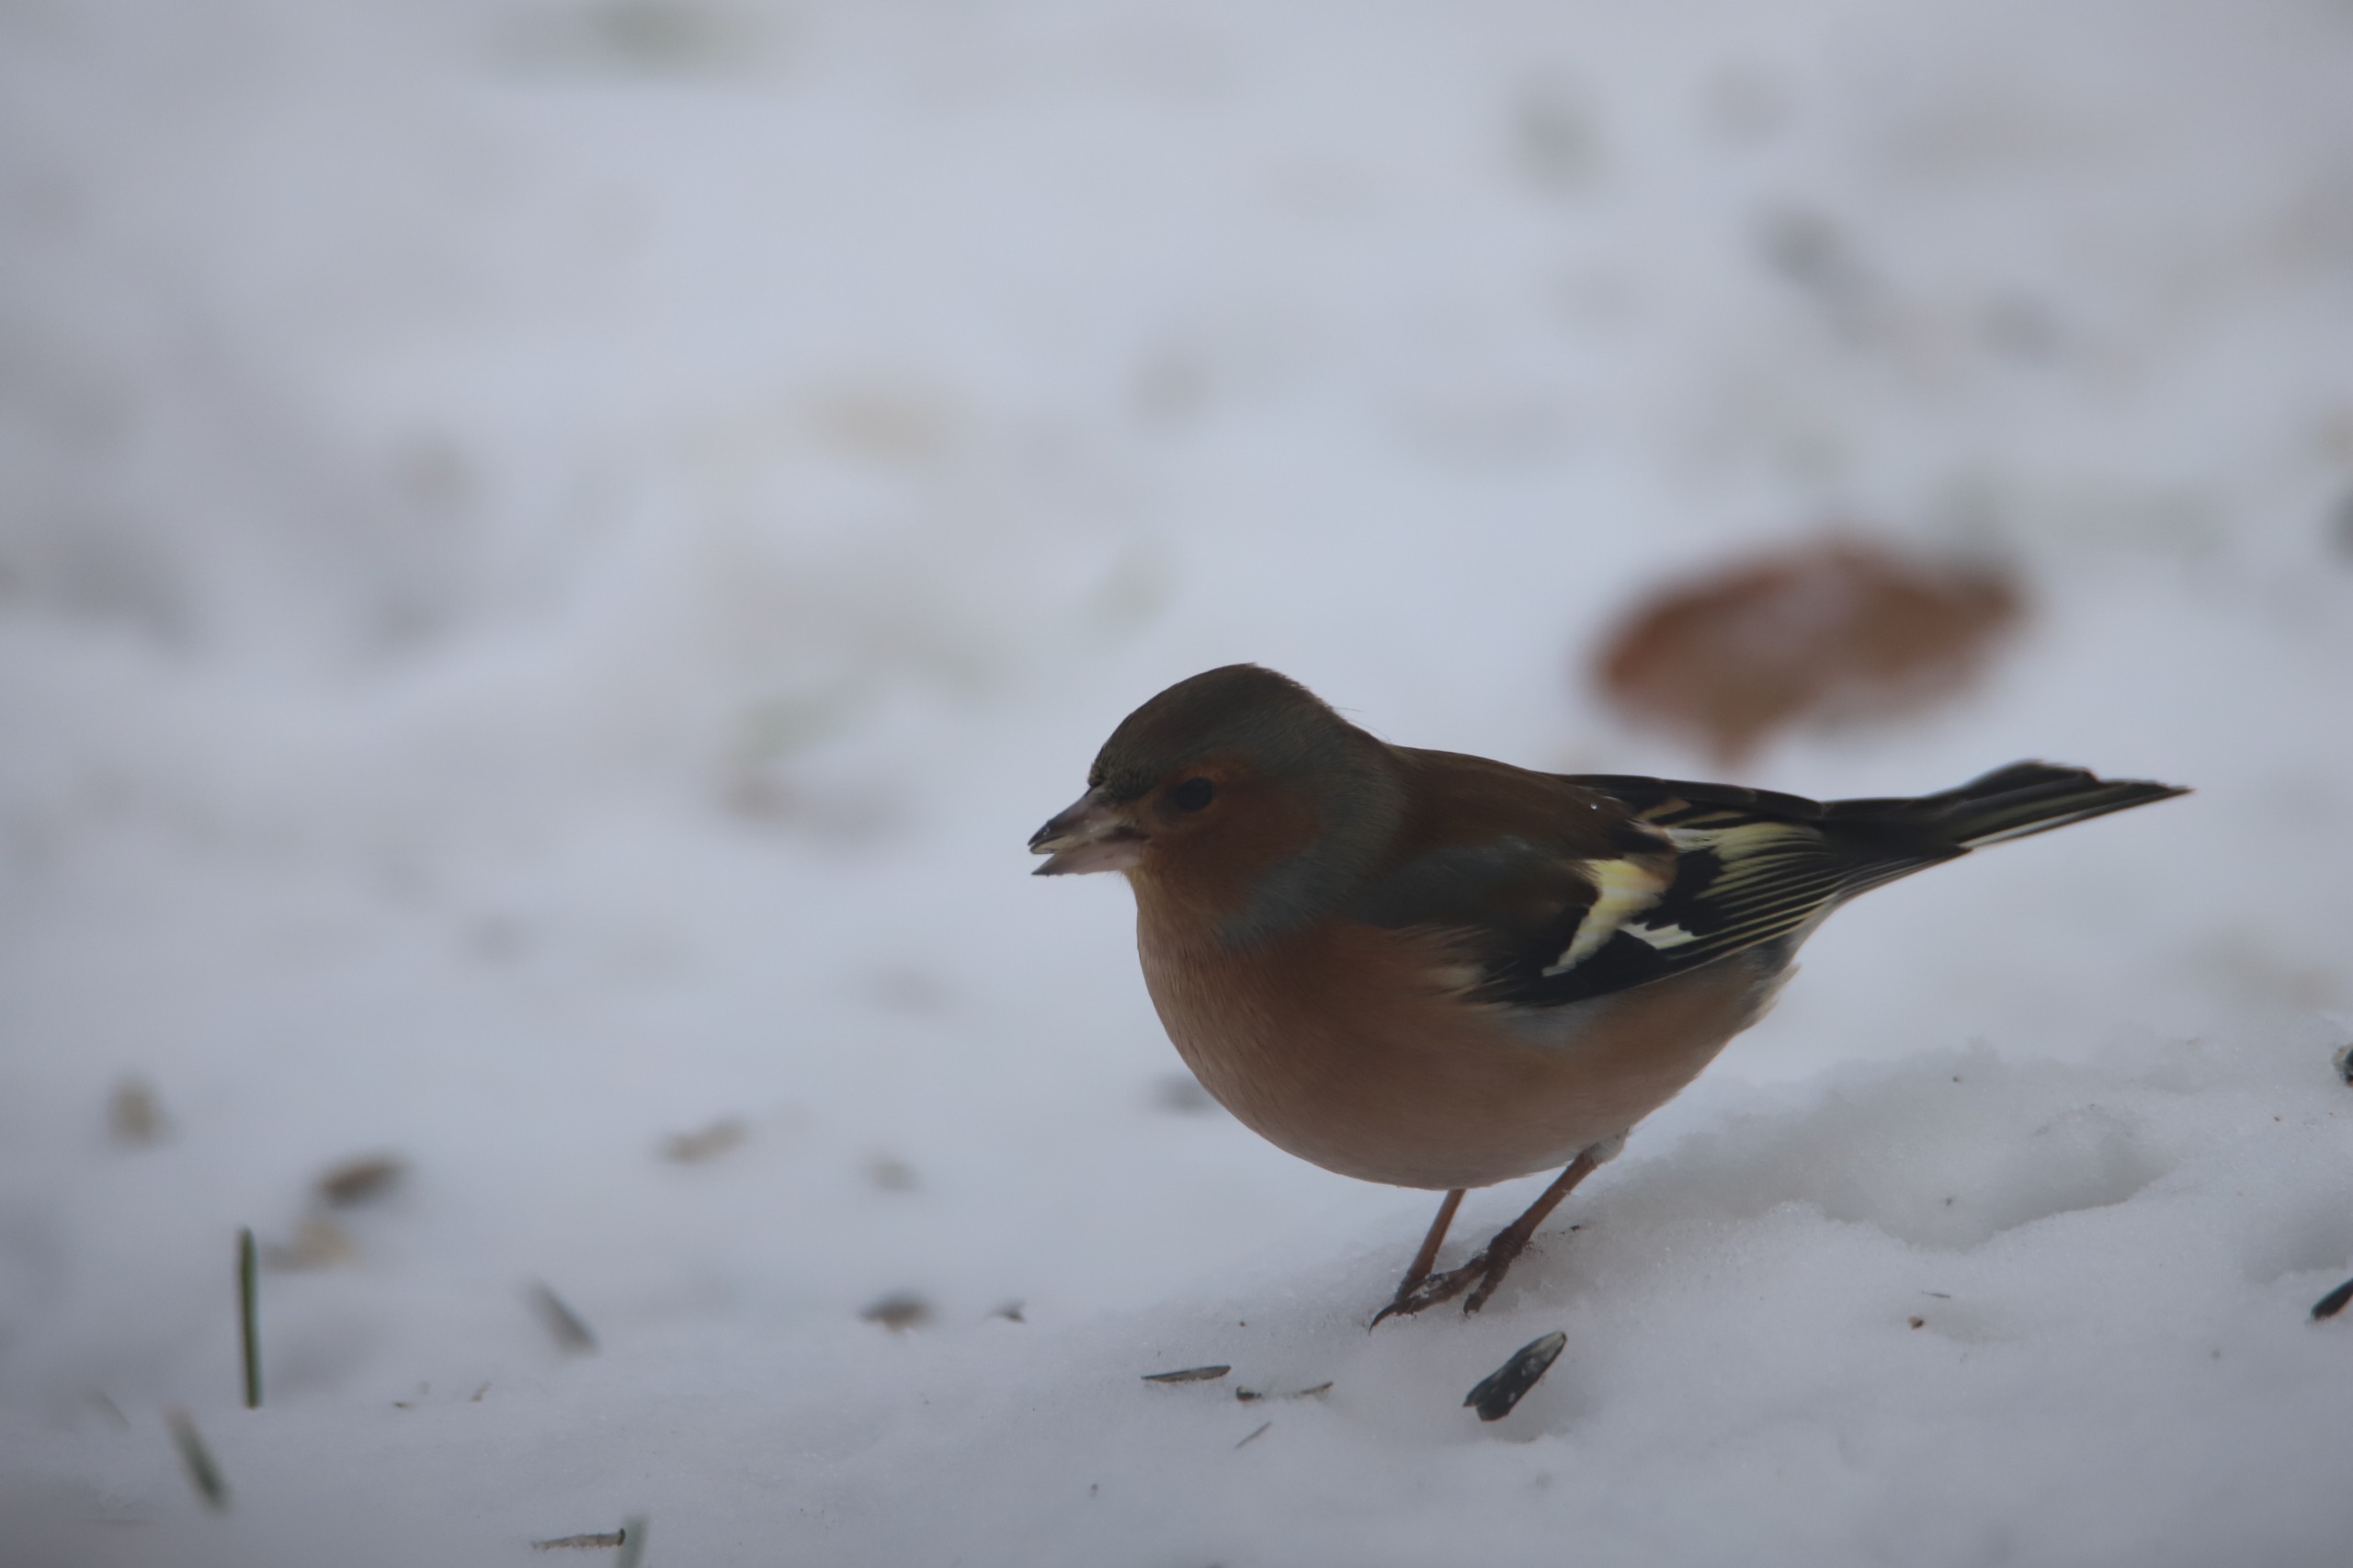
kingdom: Animalia
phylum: Chordata
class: Aves
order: Passeriformes
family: Fringillidae
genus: Fringilla
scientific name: Fringilla coelebs
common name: Bogfinke
